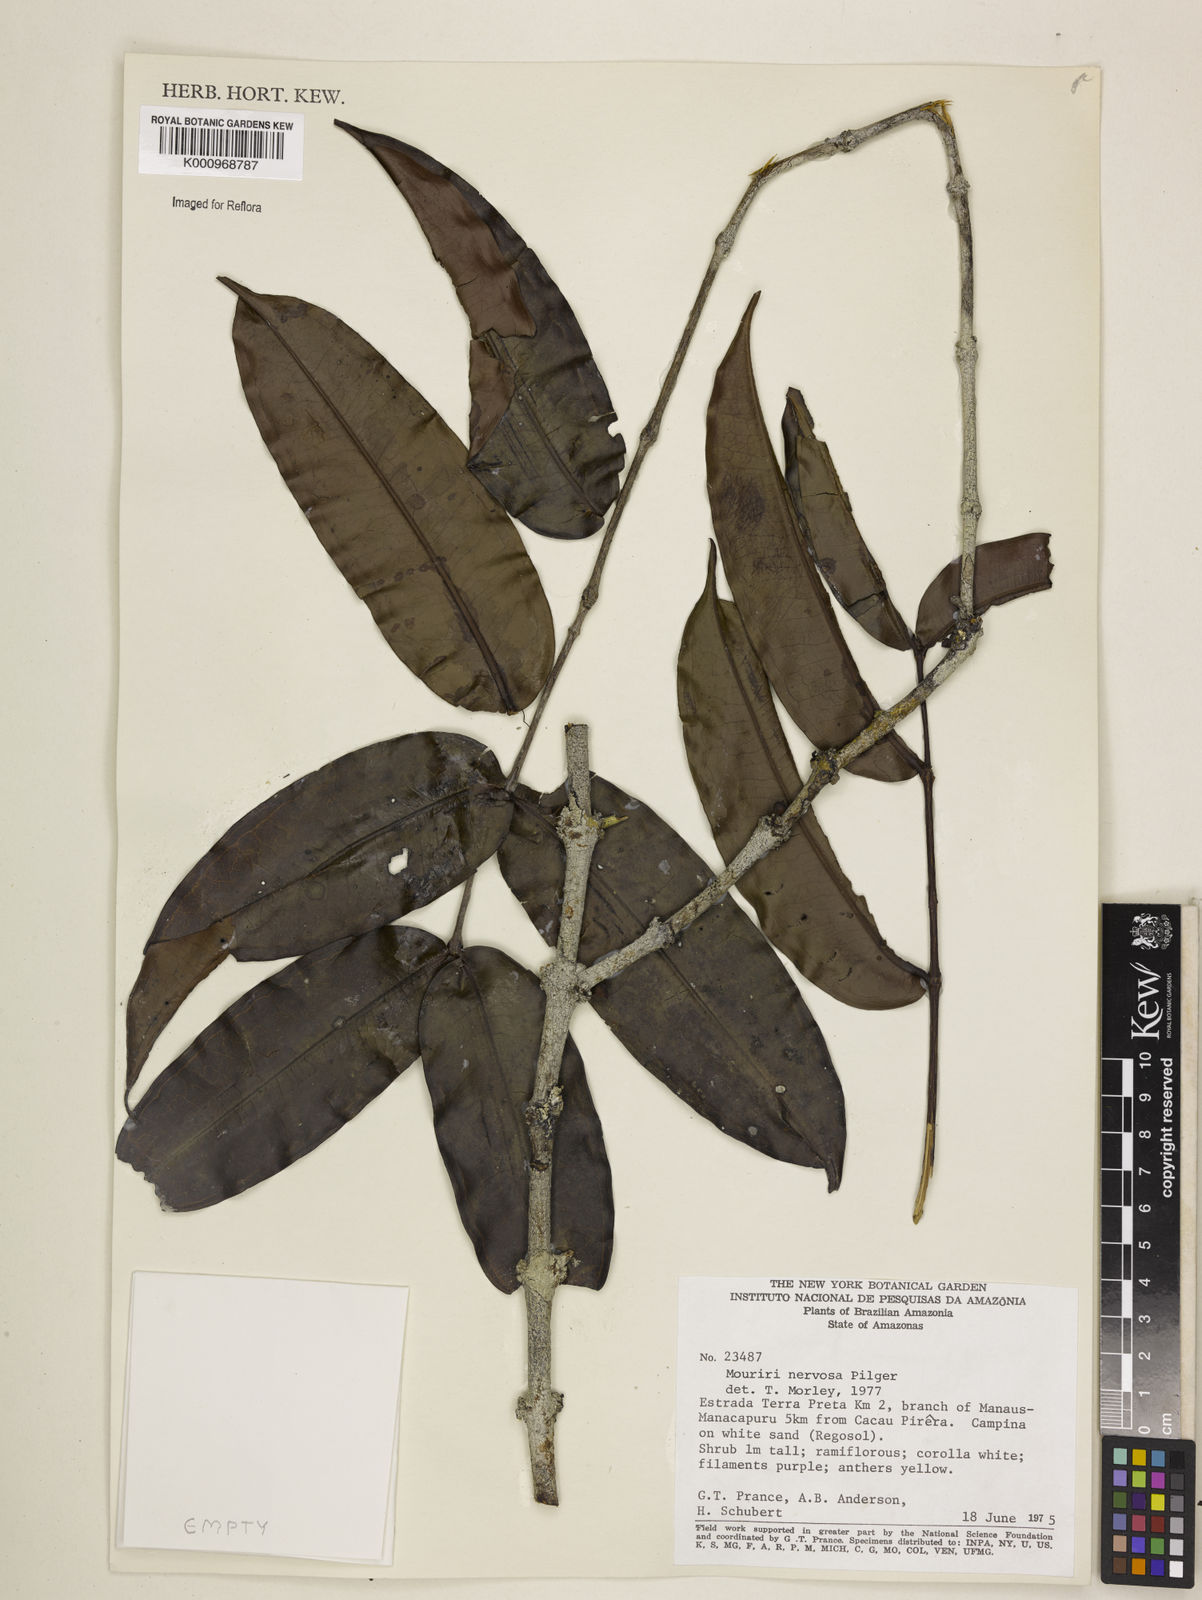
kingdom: Plantae
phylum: Tracheophyta
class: Magnoliopsida
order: Myrtales
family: Melastomataceae
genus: Mouriri
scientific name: Mouriri sideroxylon
